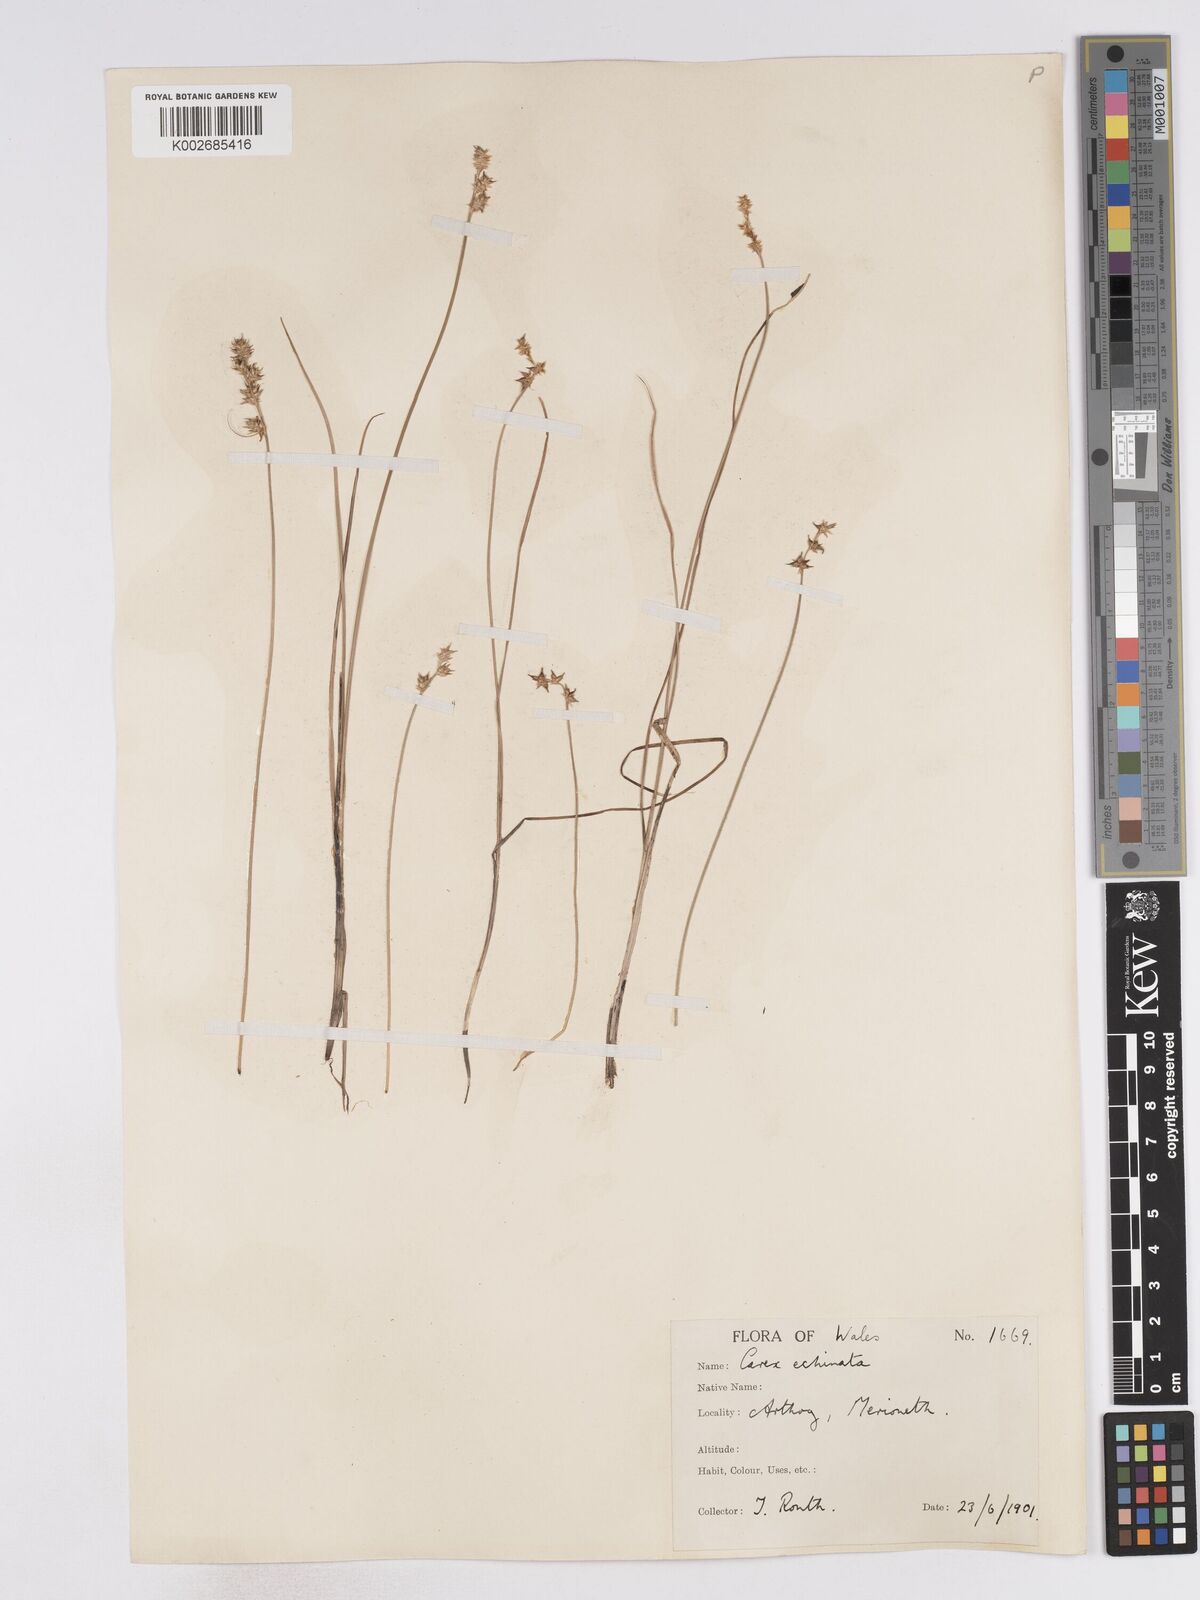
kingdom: Plantae
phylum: Tracheophyta
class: Liliopsida
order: Poales
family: Cyperaceae
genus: Carex
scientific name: Carex hispida
